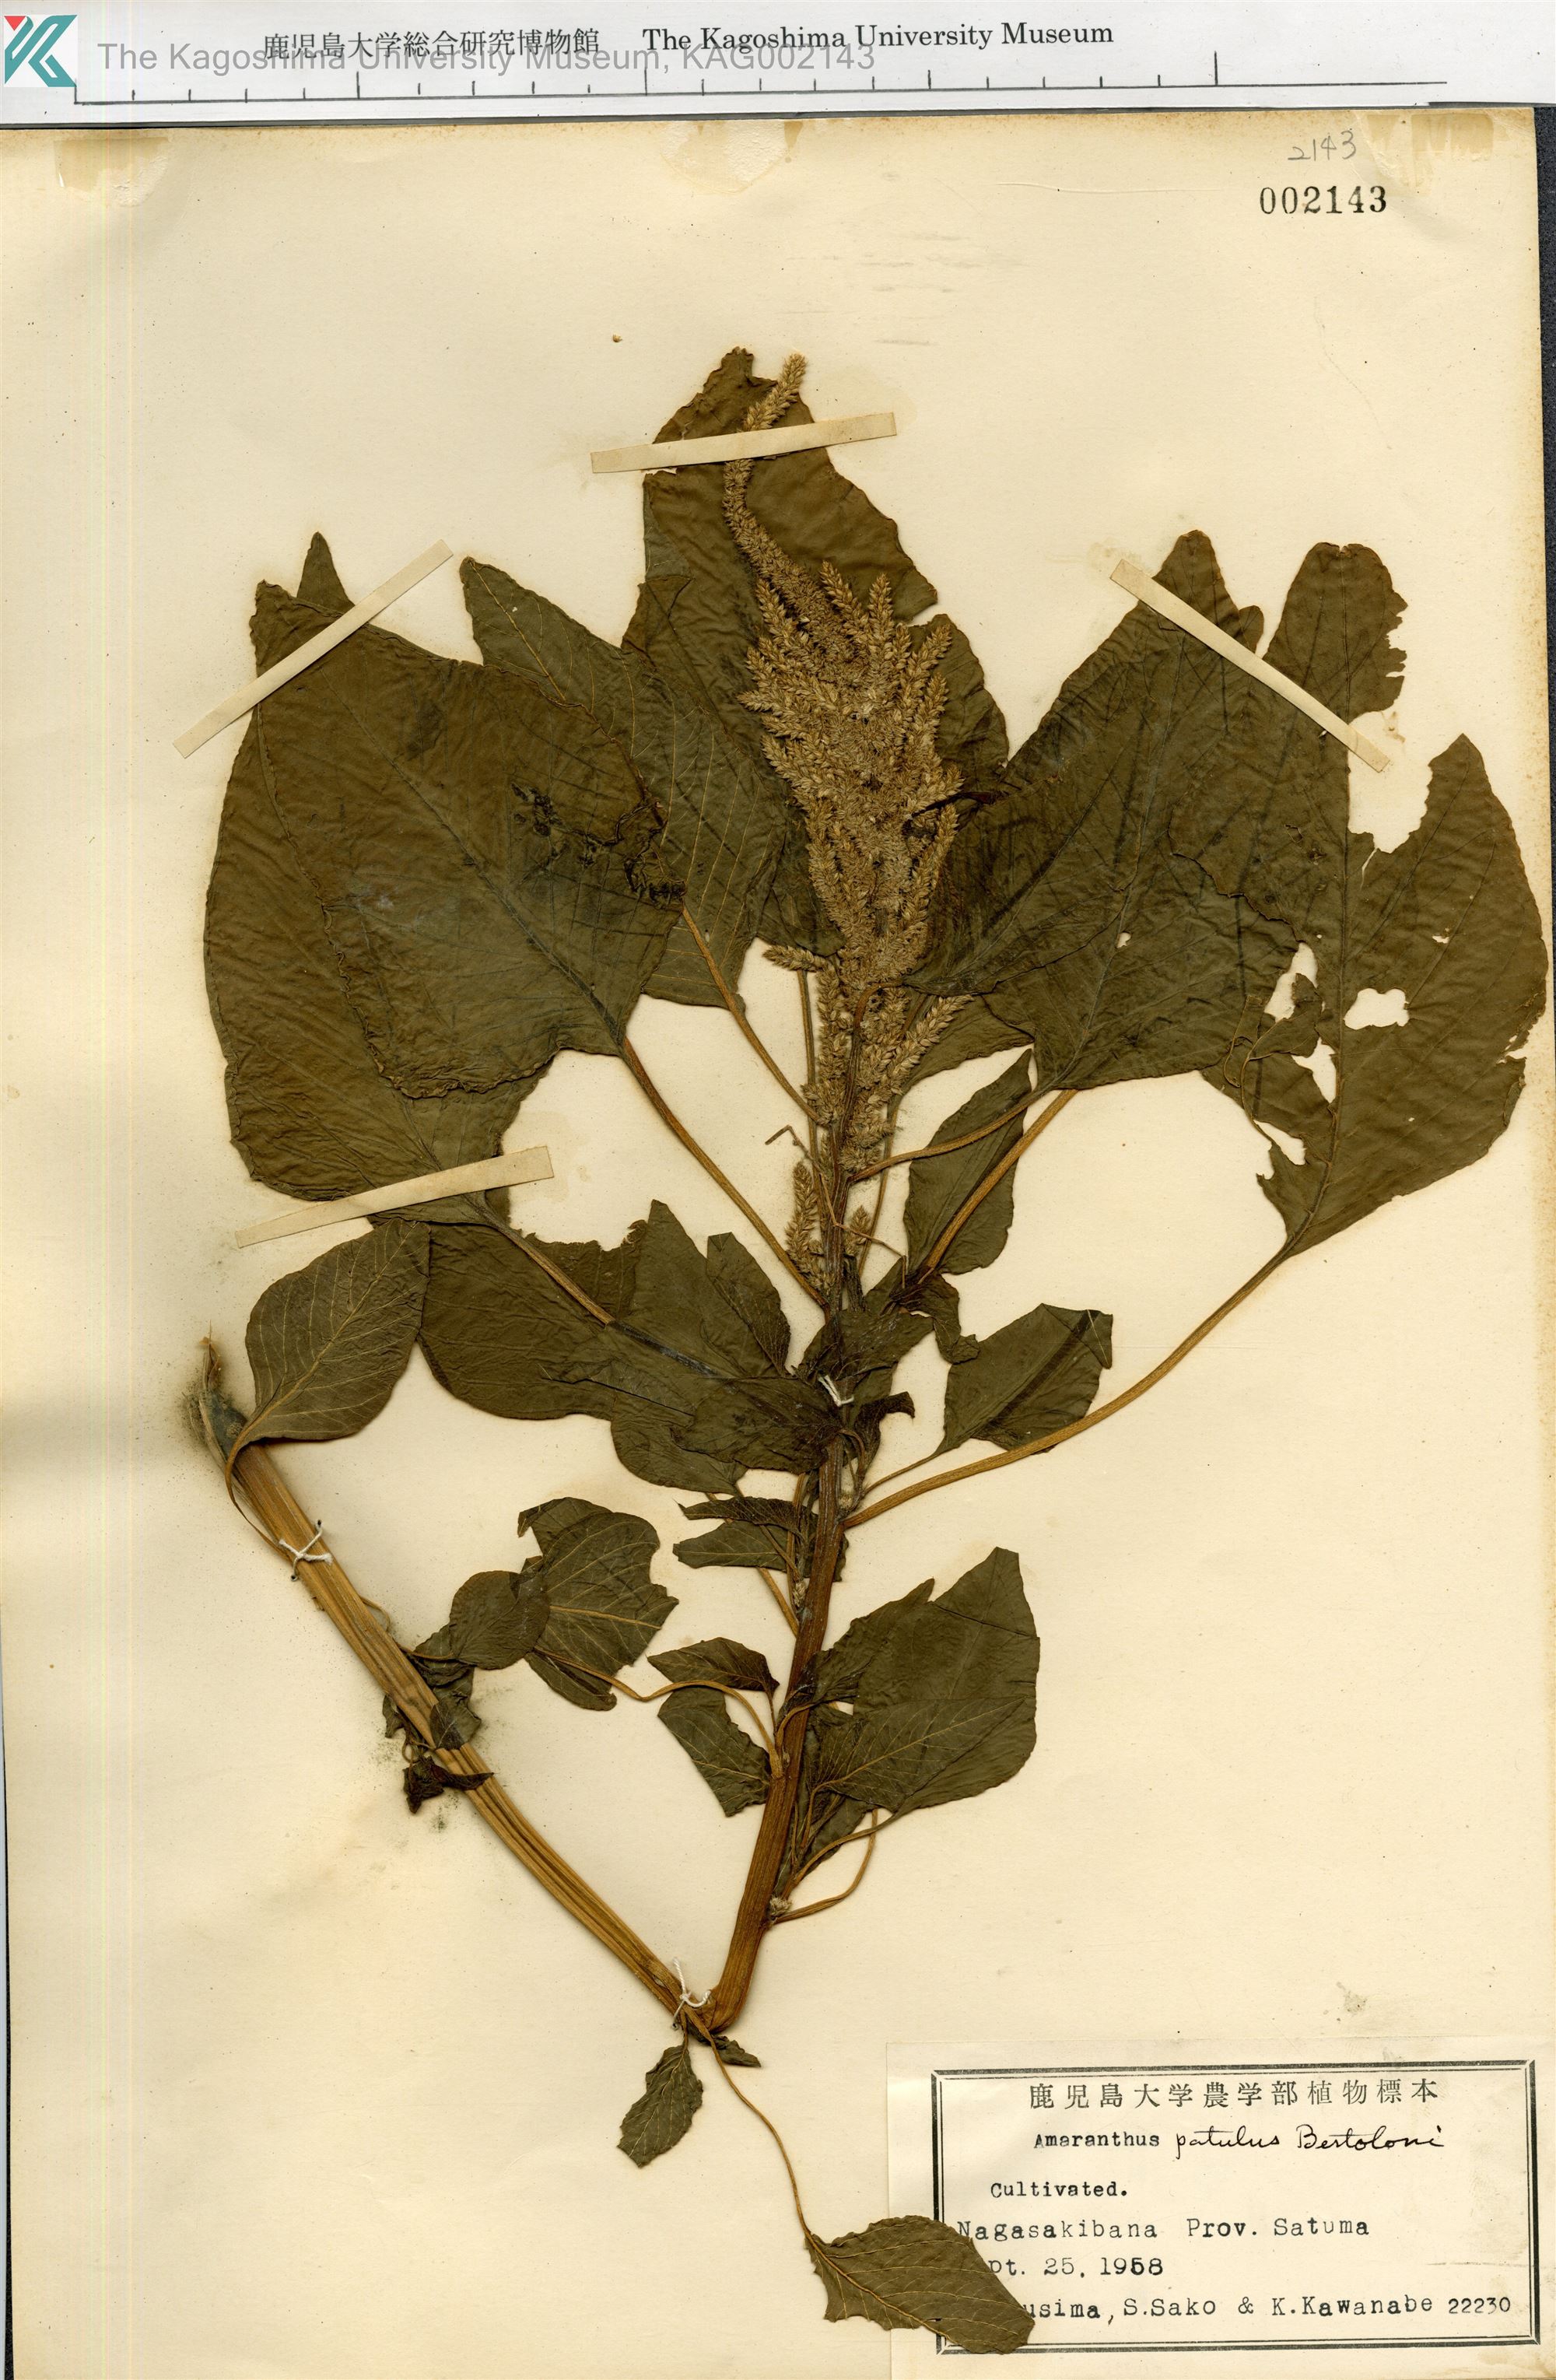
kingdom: Plantae
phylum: Tracheophyta
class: Magnoliopsida
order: Caryophyllales
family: Amaranthaceae
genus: Amaranthus
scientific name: Amaranthus hybridus
